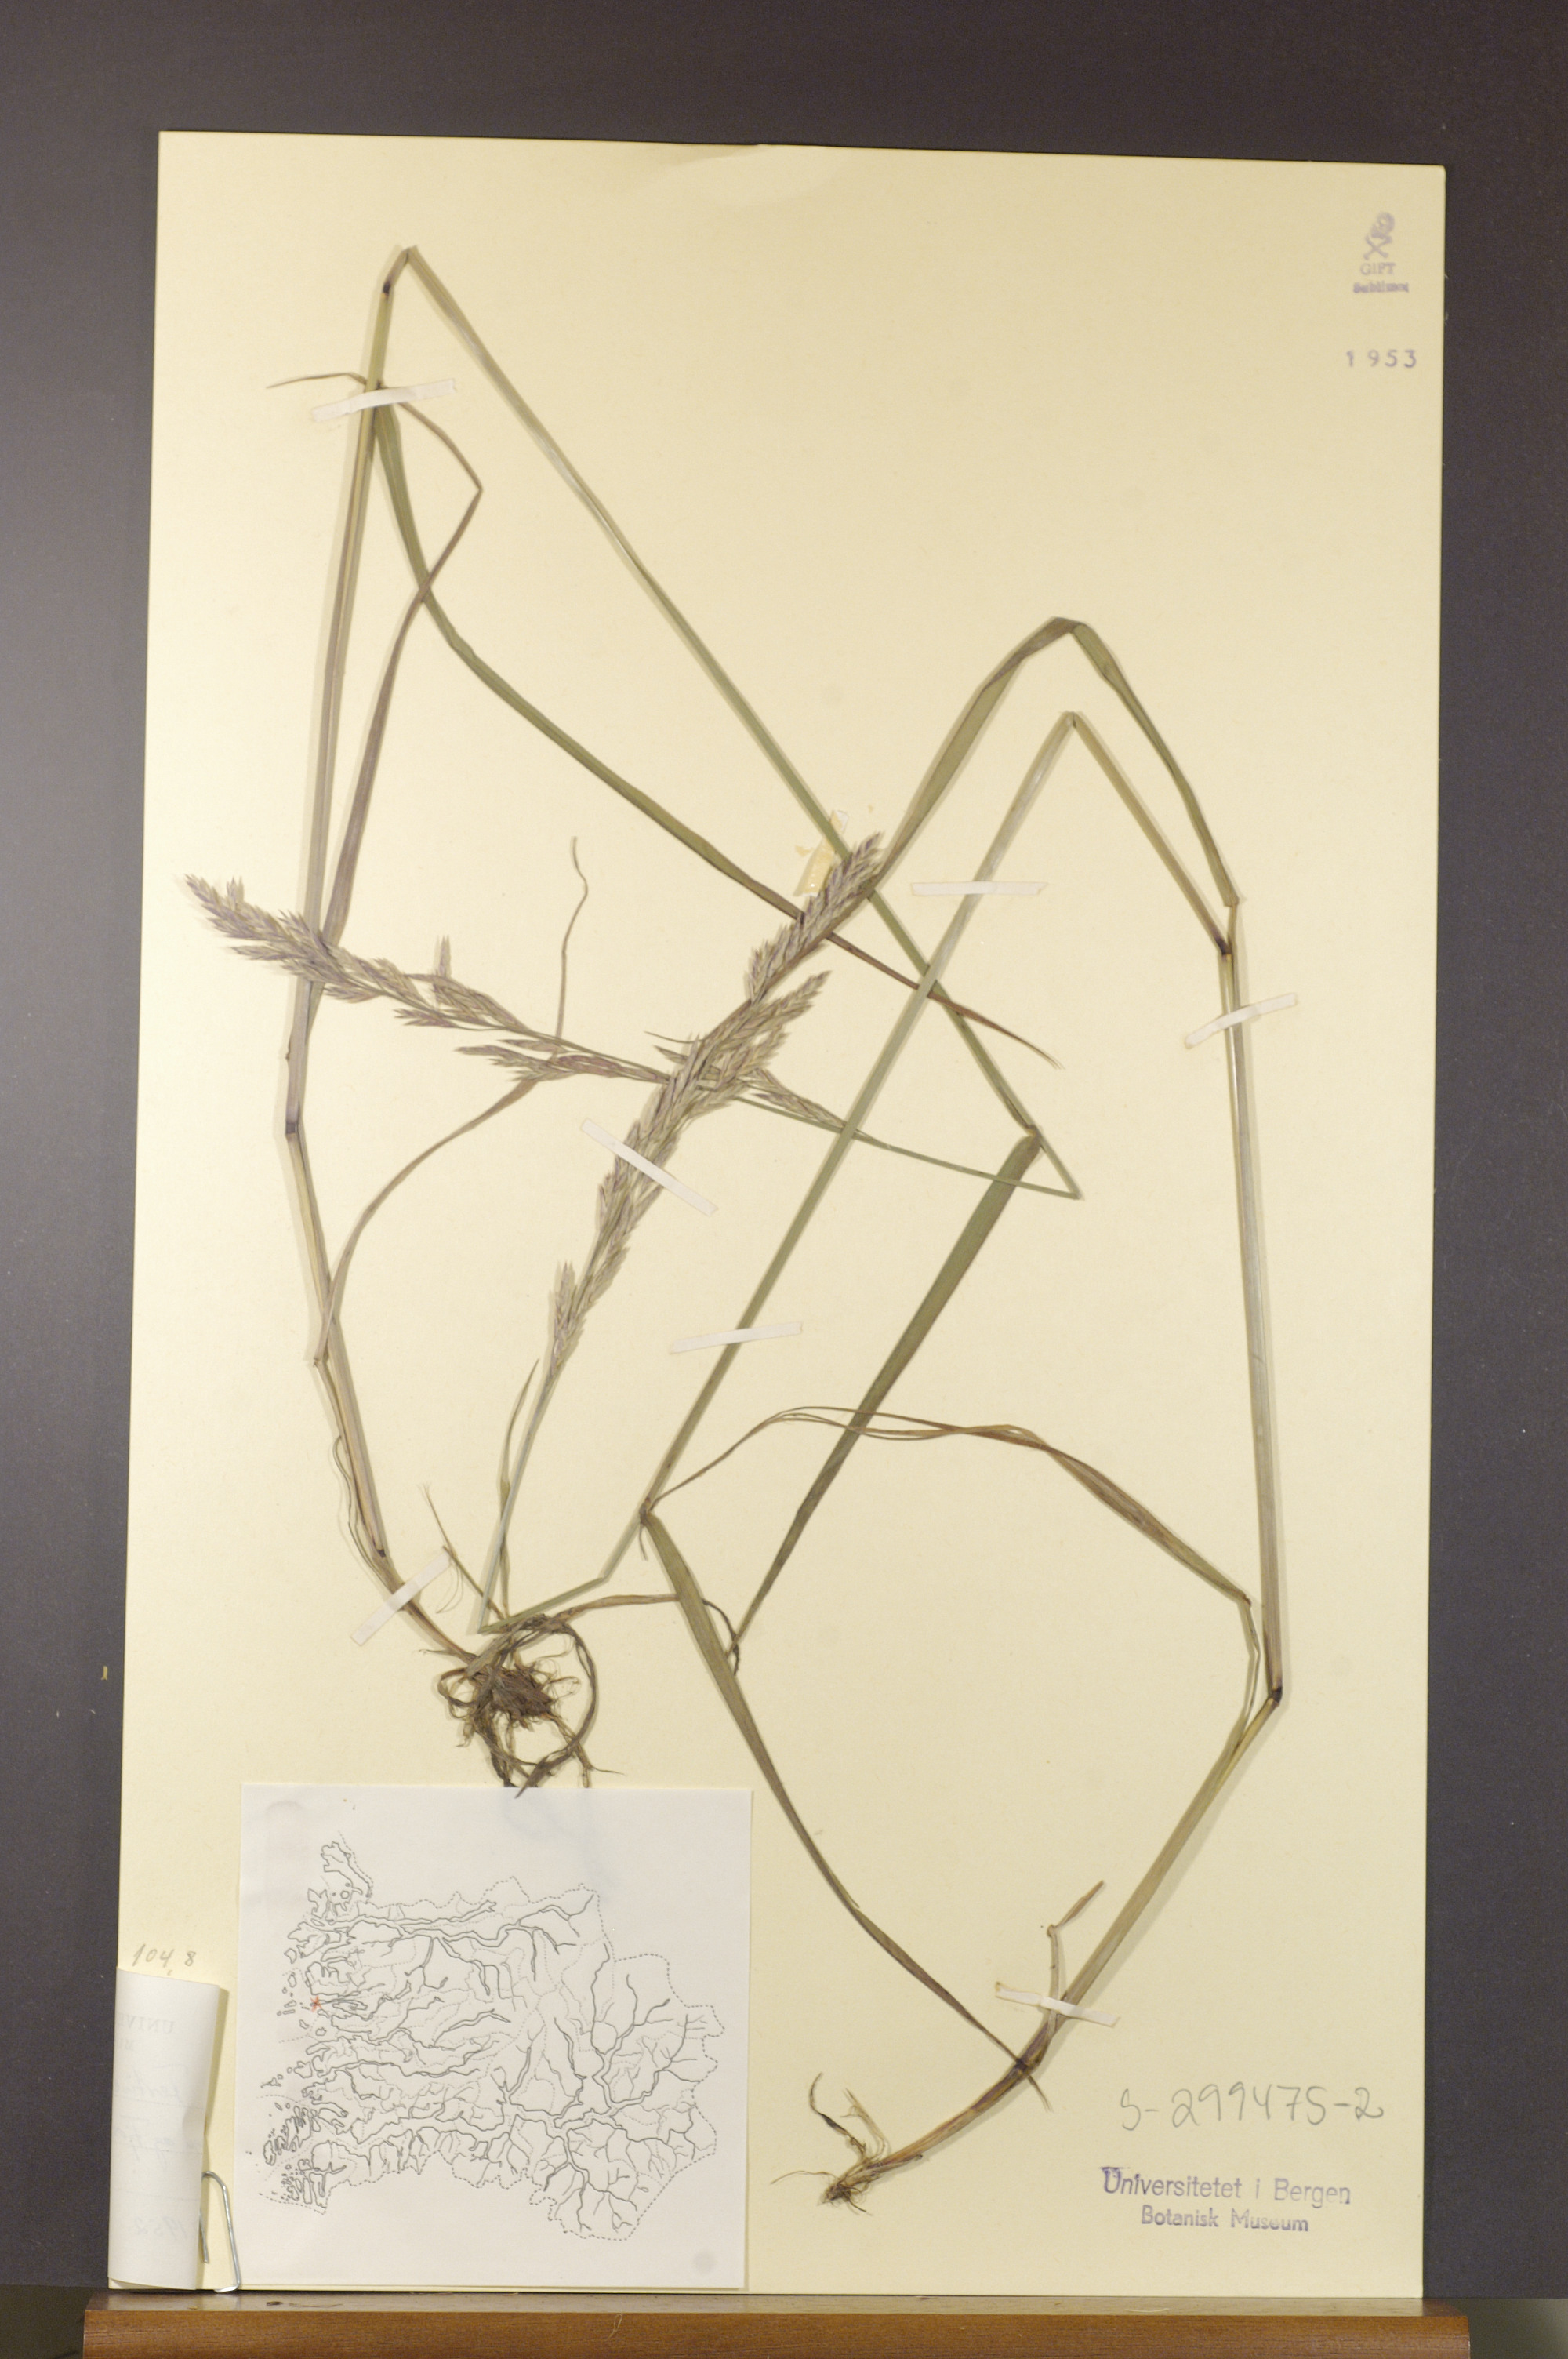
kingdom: Plantae
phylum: Tracheophyta
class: Liliopsida
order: Poales
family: Poaceae
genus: Lolium
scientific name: Lolium pratense
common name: Dover grass
